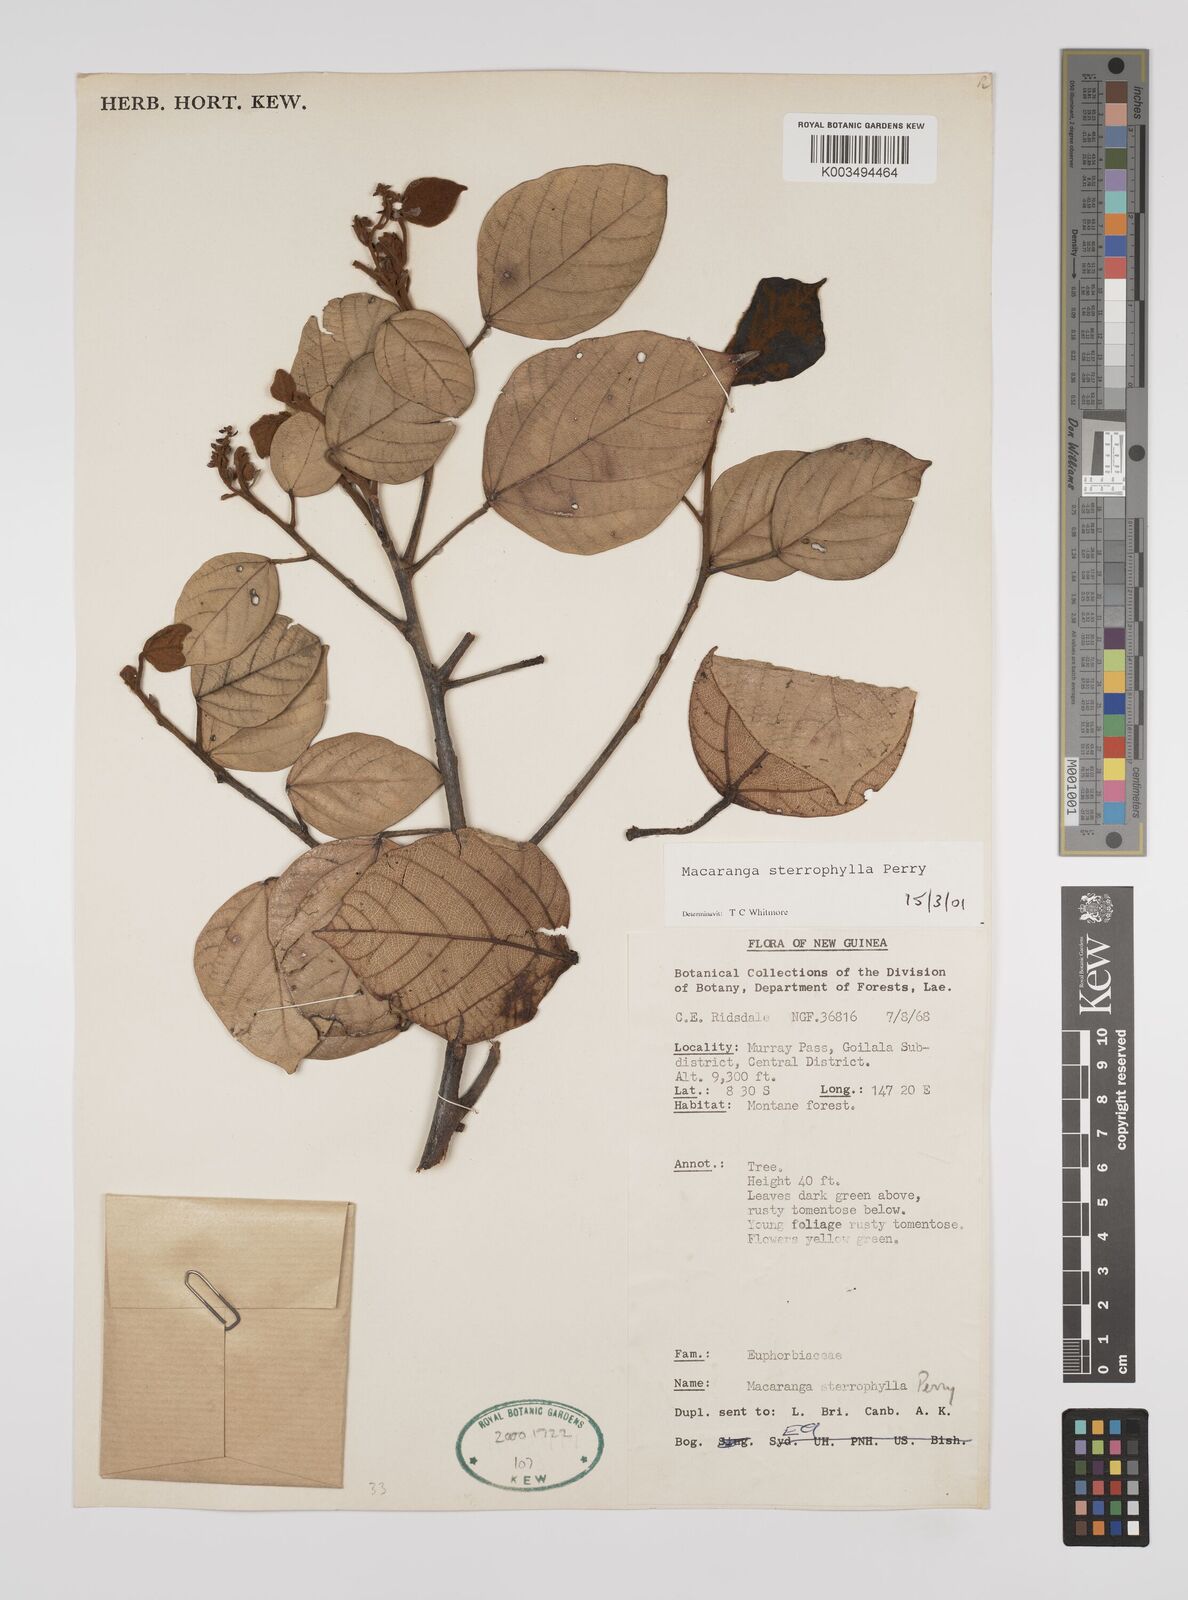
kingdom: Plantae
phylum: Tracheophyta
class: Magnoliopsida
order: Malpighiales
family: Euphorbiaceae
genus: Macaranga
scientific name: Macaranga stenophylla
